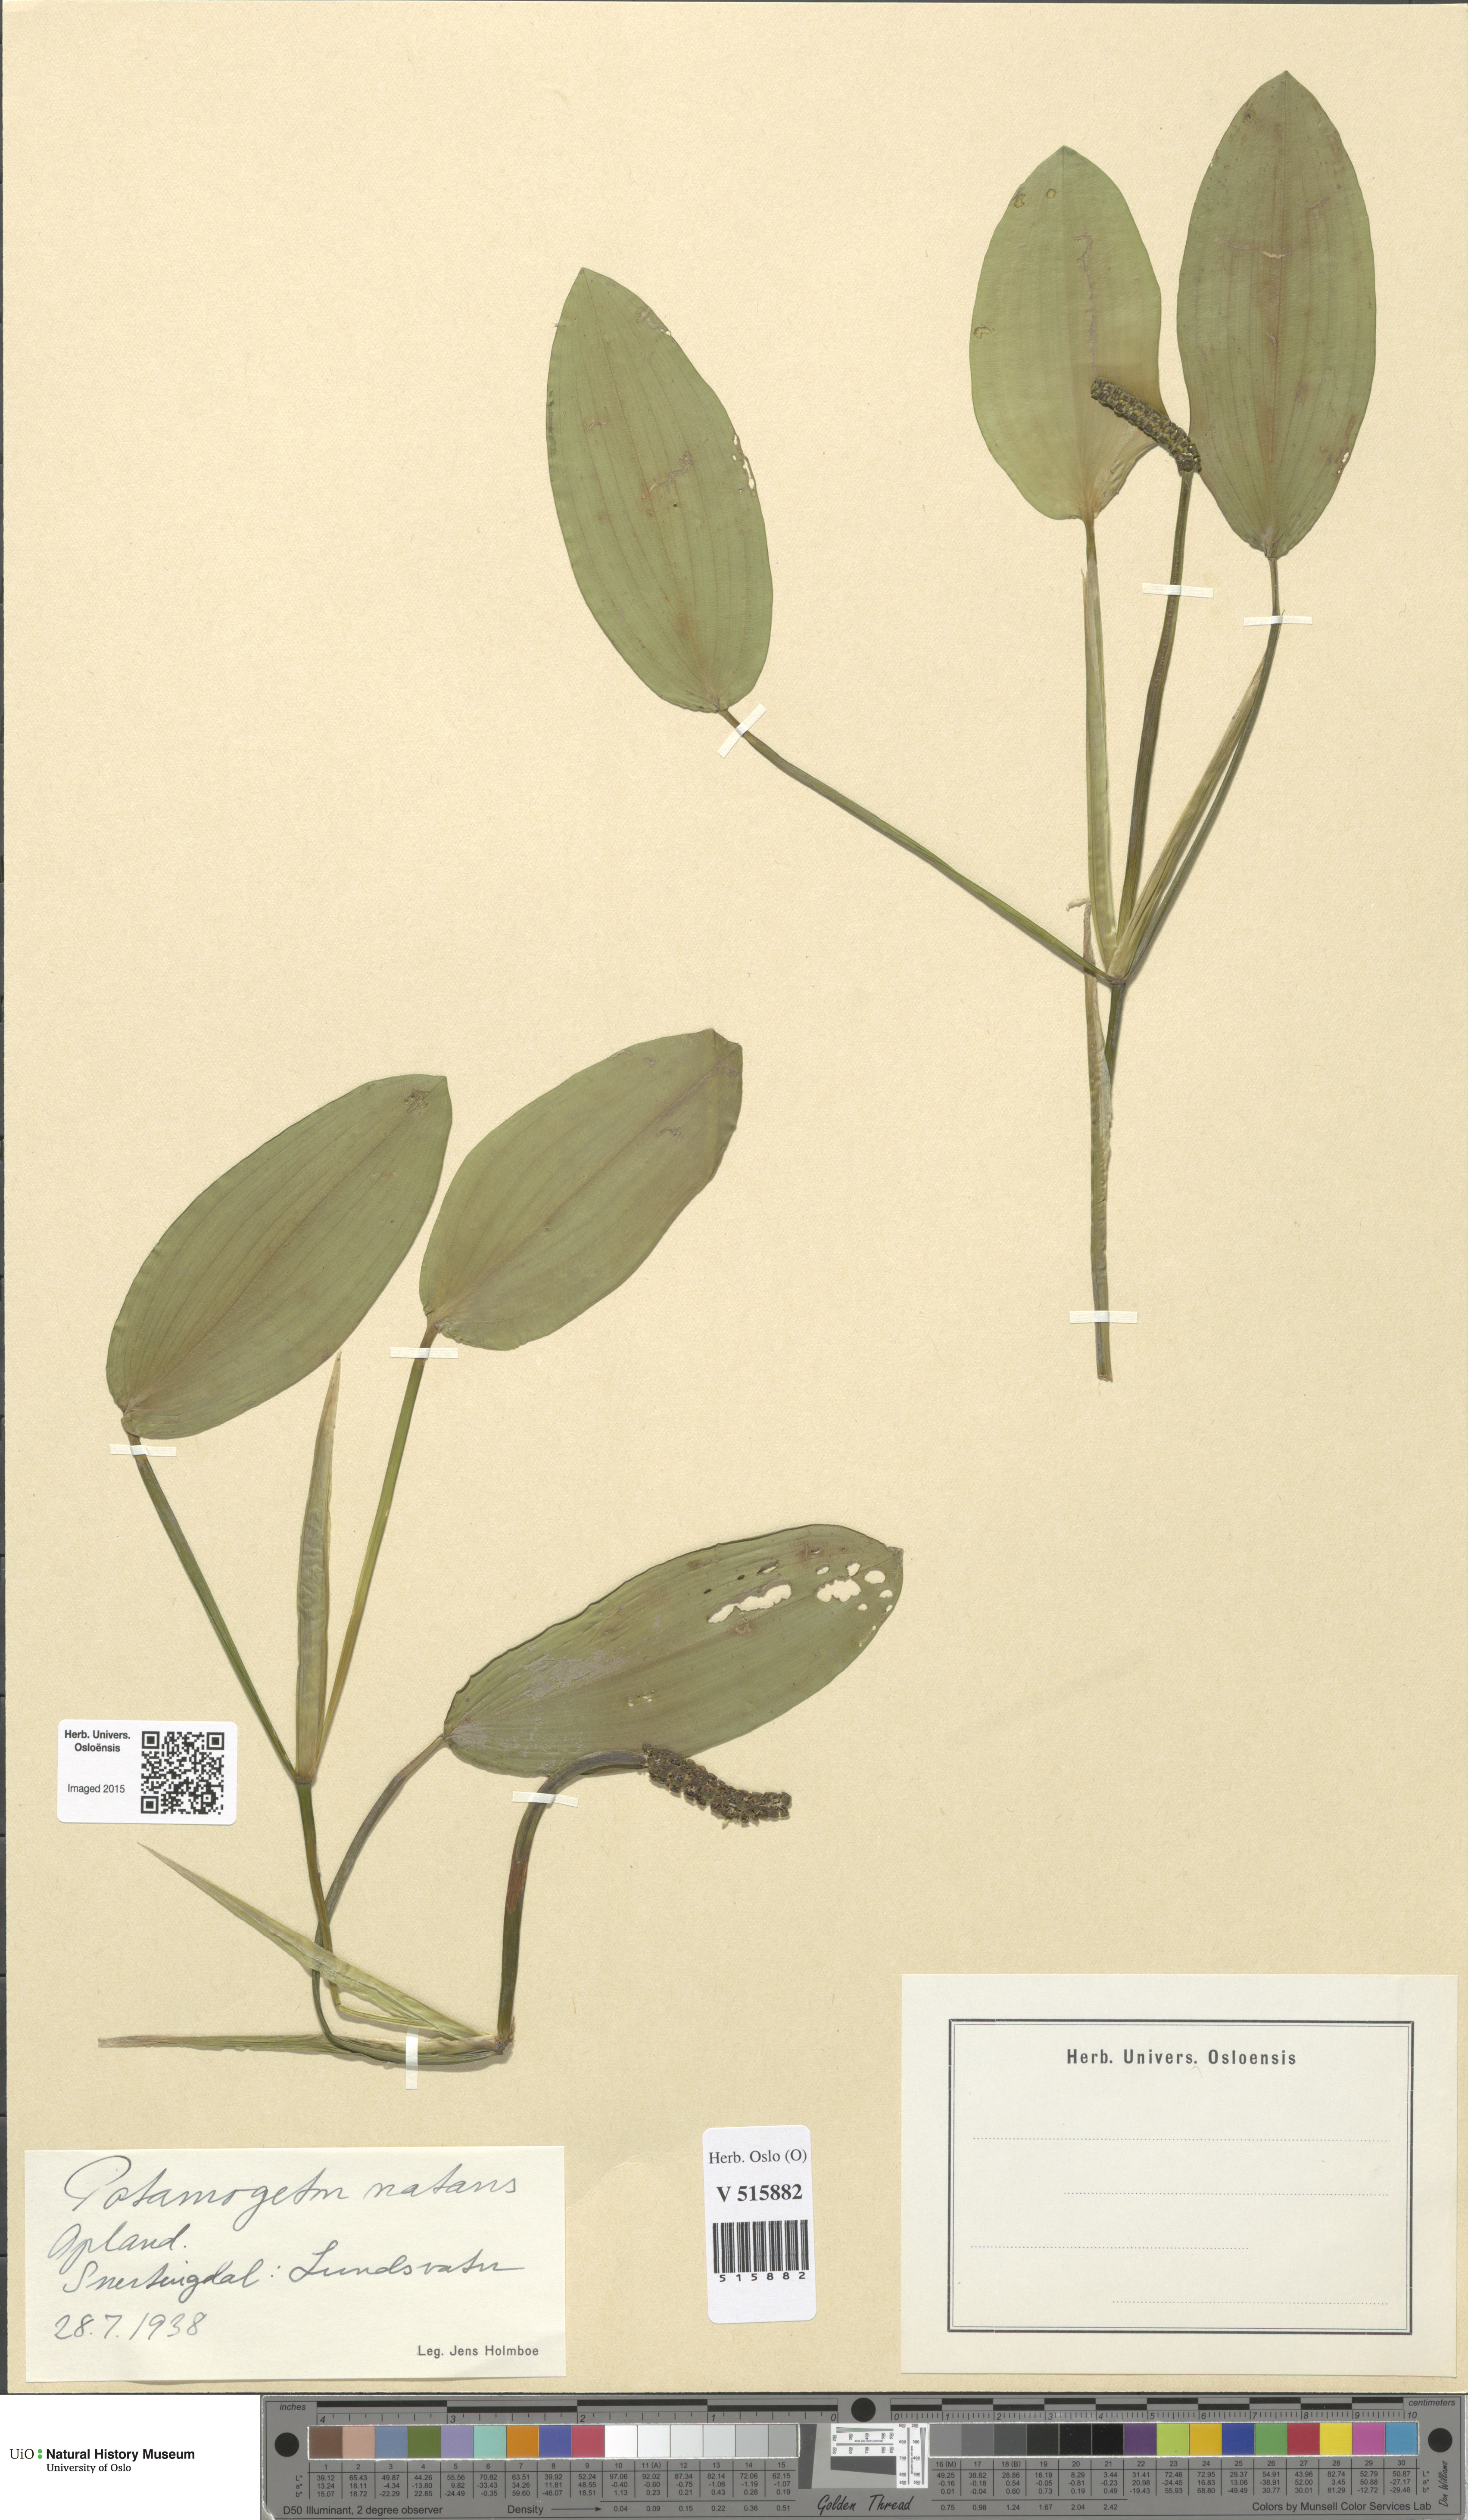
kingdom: Plantae
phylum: Tracheophyta
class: Liliopsida
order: Alismatales
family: Potamogetonaceae
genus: Potamogeton
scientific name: Potamogeton natans
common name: Broad-leaved pondweed
